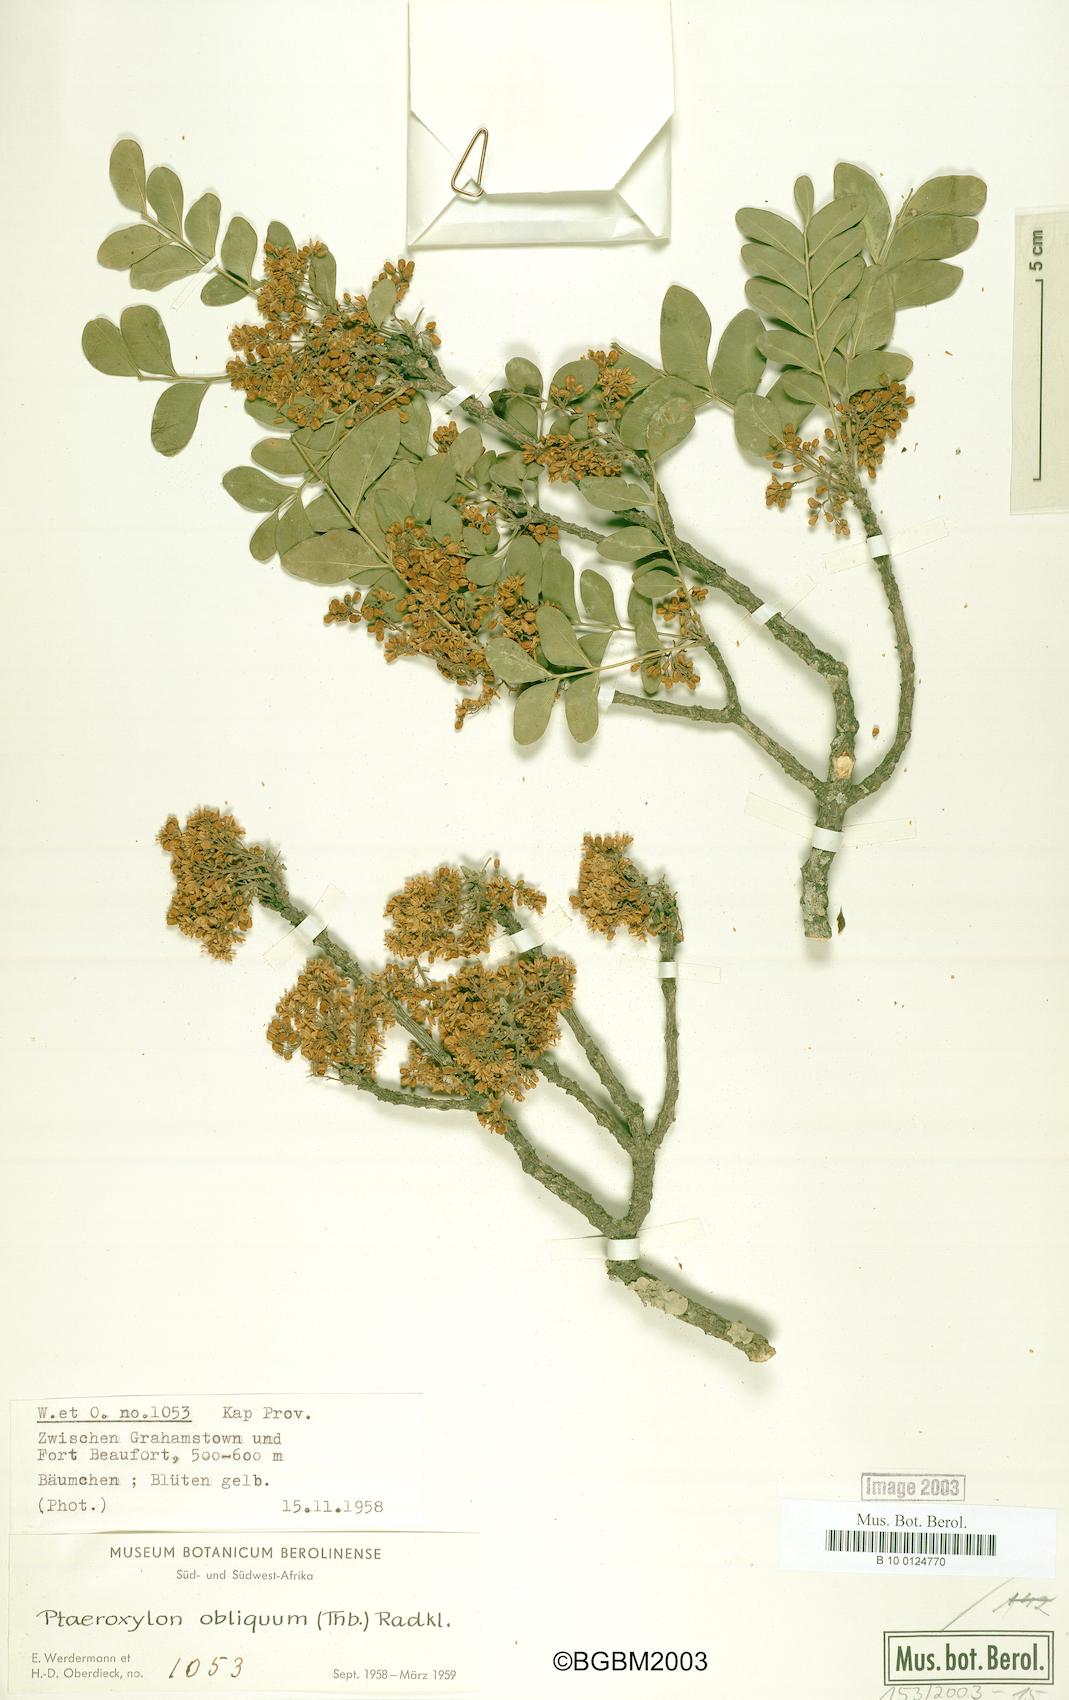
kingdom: Plantae
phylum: Tracheophyta
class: Magnoliopsida
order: Sapindales
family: Rutaceae
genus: Ptaeroxylon
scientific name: Ptaeroxylon obliquum
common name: Sneezewood
